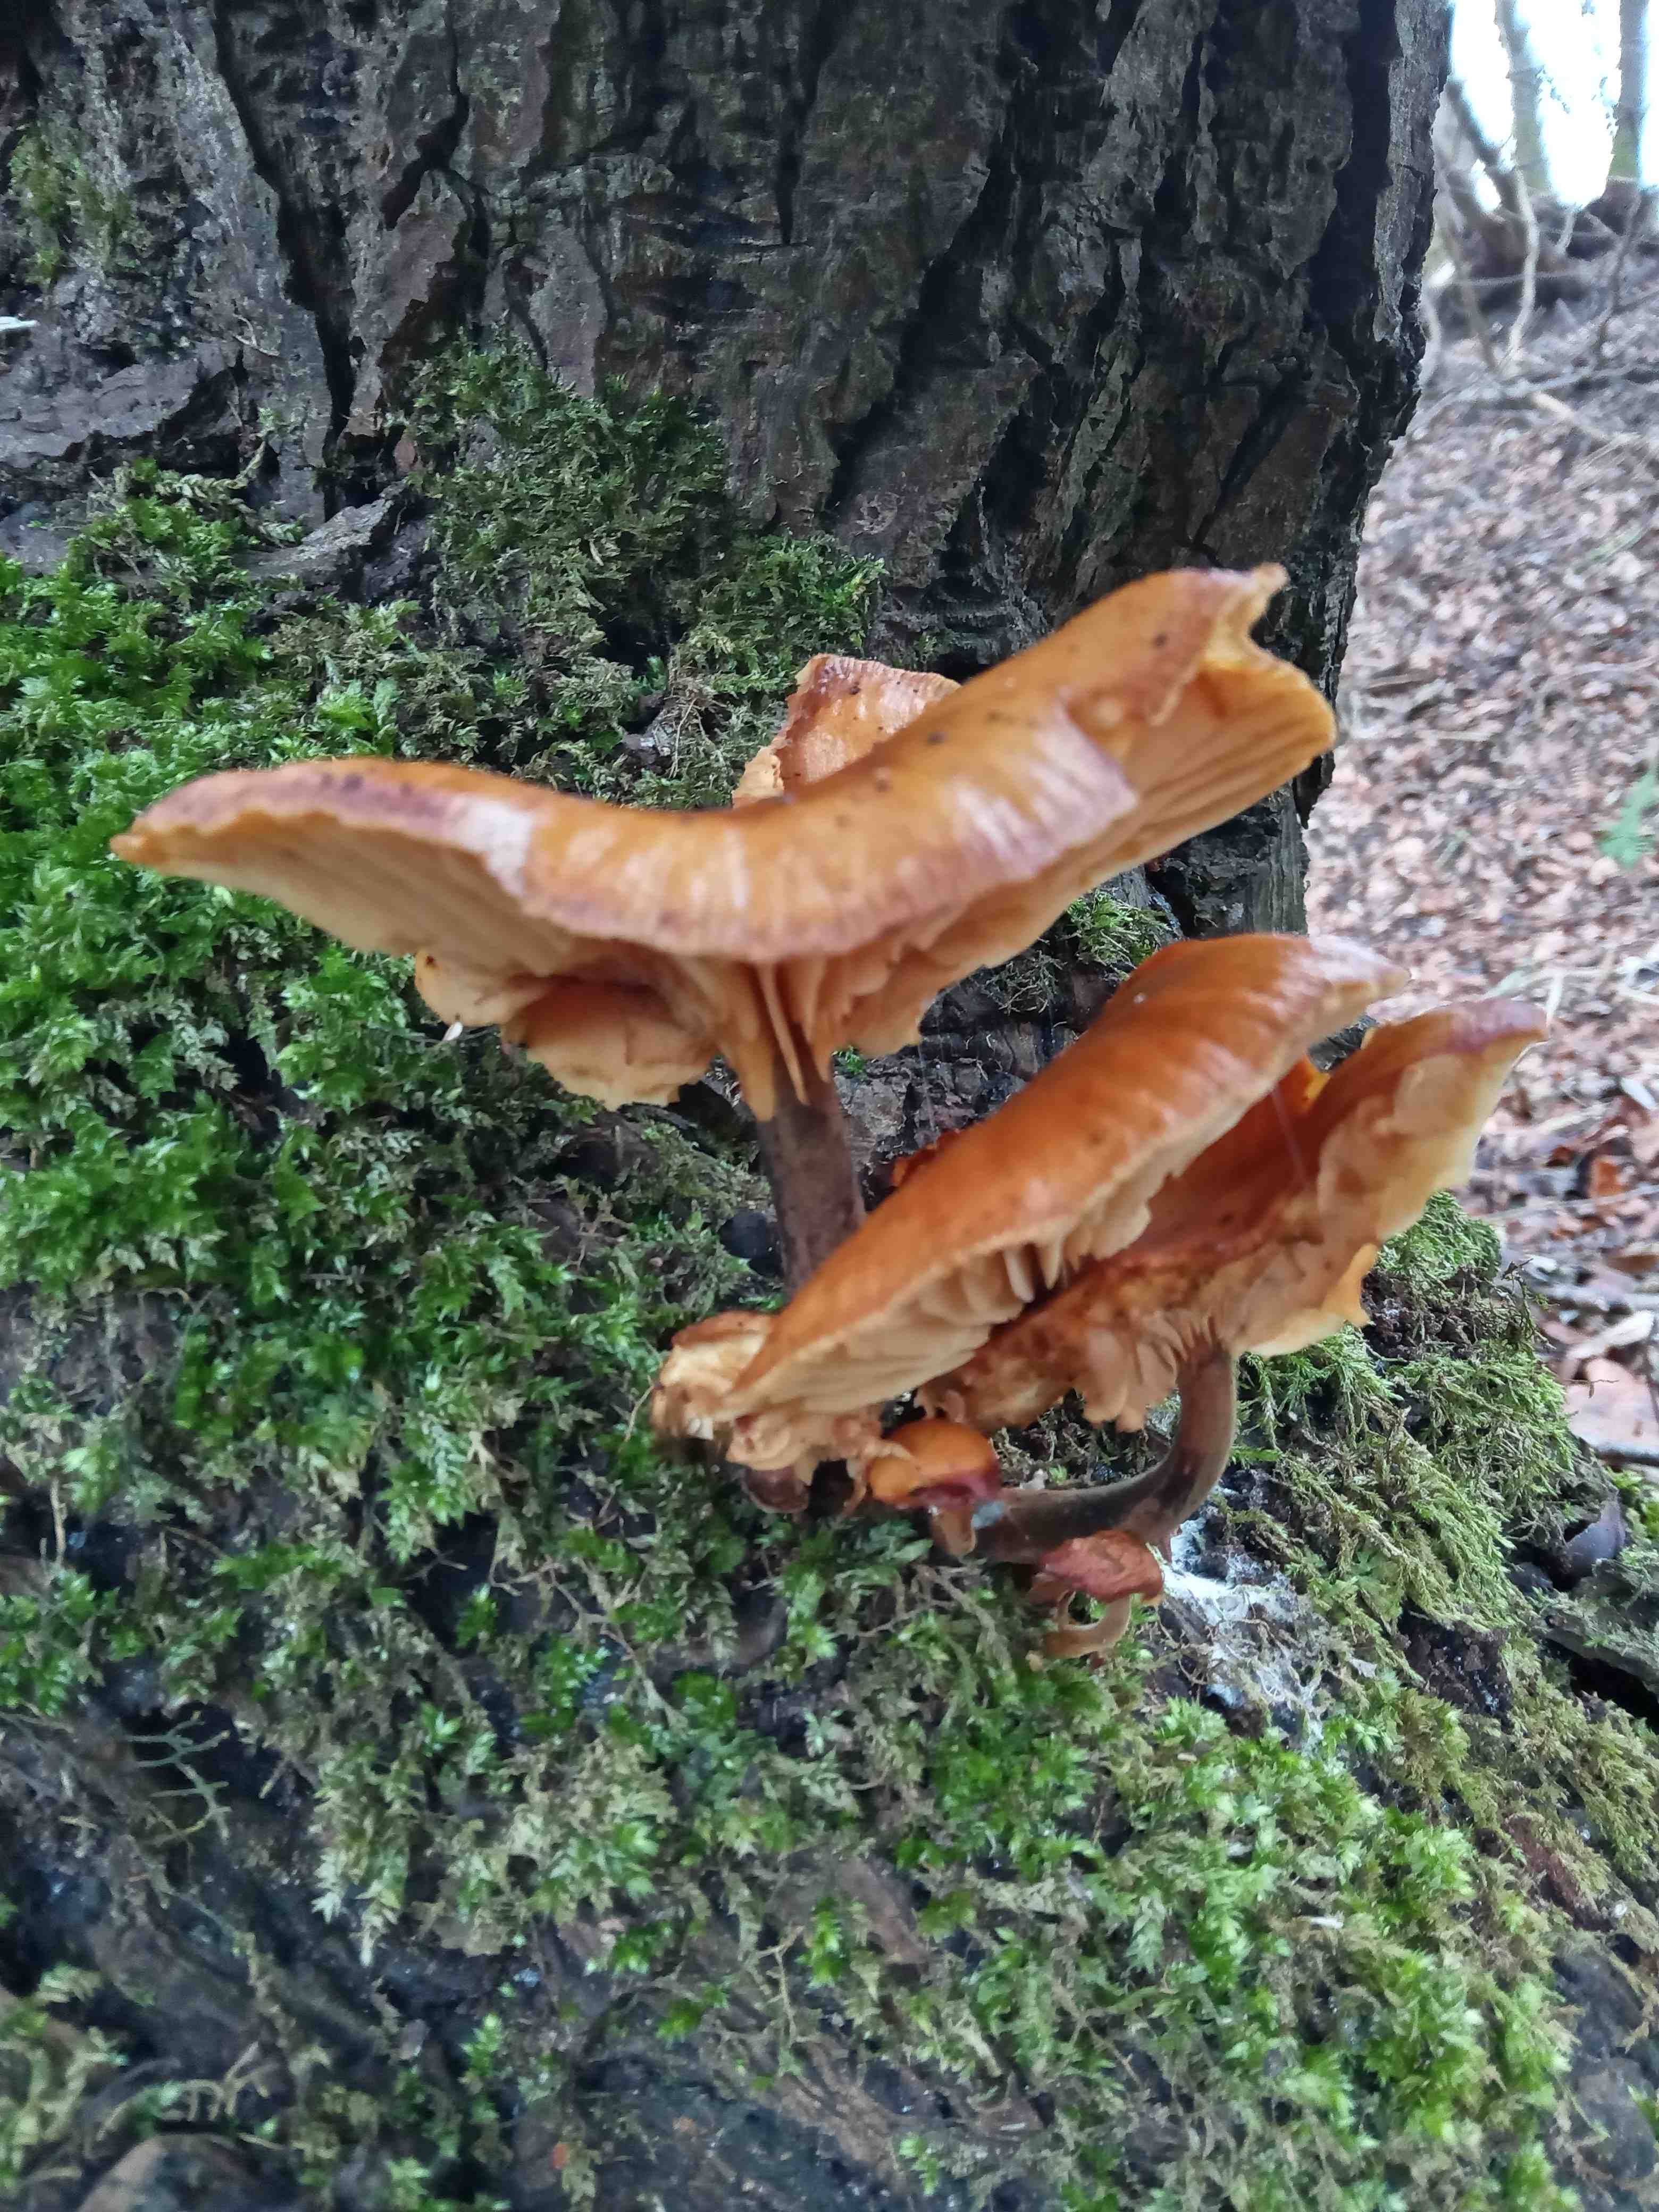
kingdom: Fungi
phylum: Basidiomycota
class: Agaricomycetes
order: Agaricales
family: Physalacriaceae
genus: Flammulina
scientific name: Flammulina velutipes
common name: gul fløjlsfod
